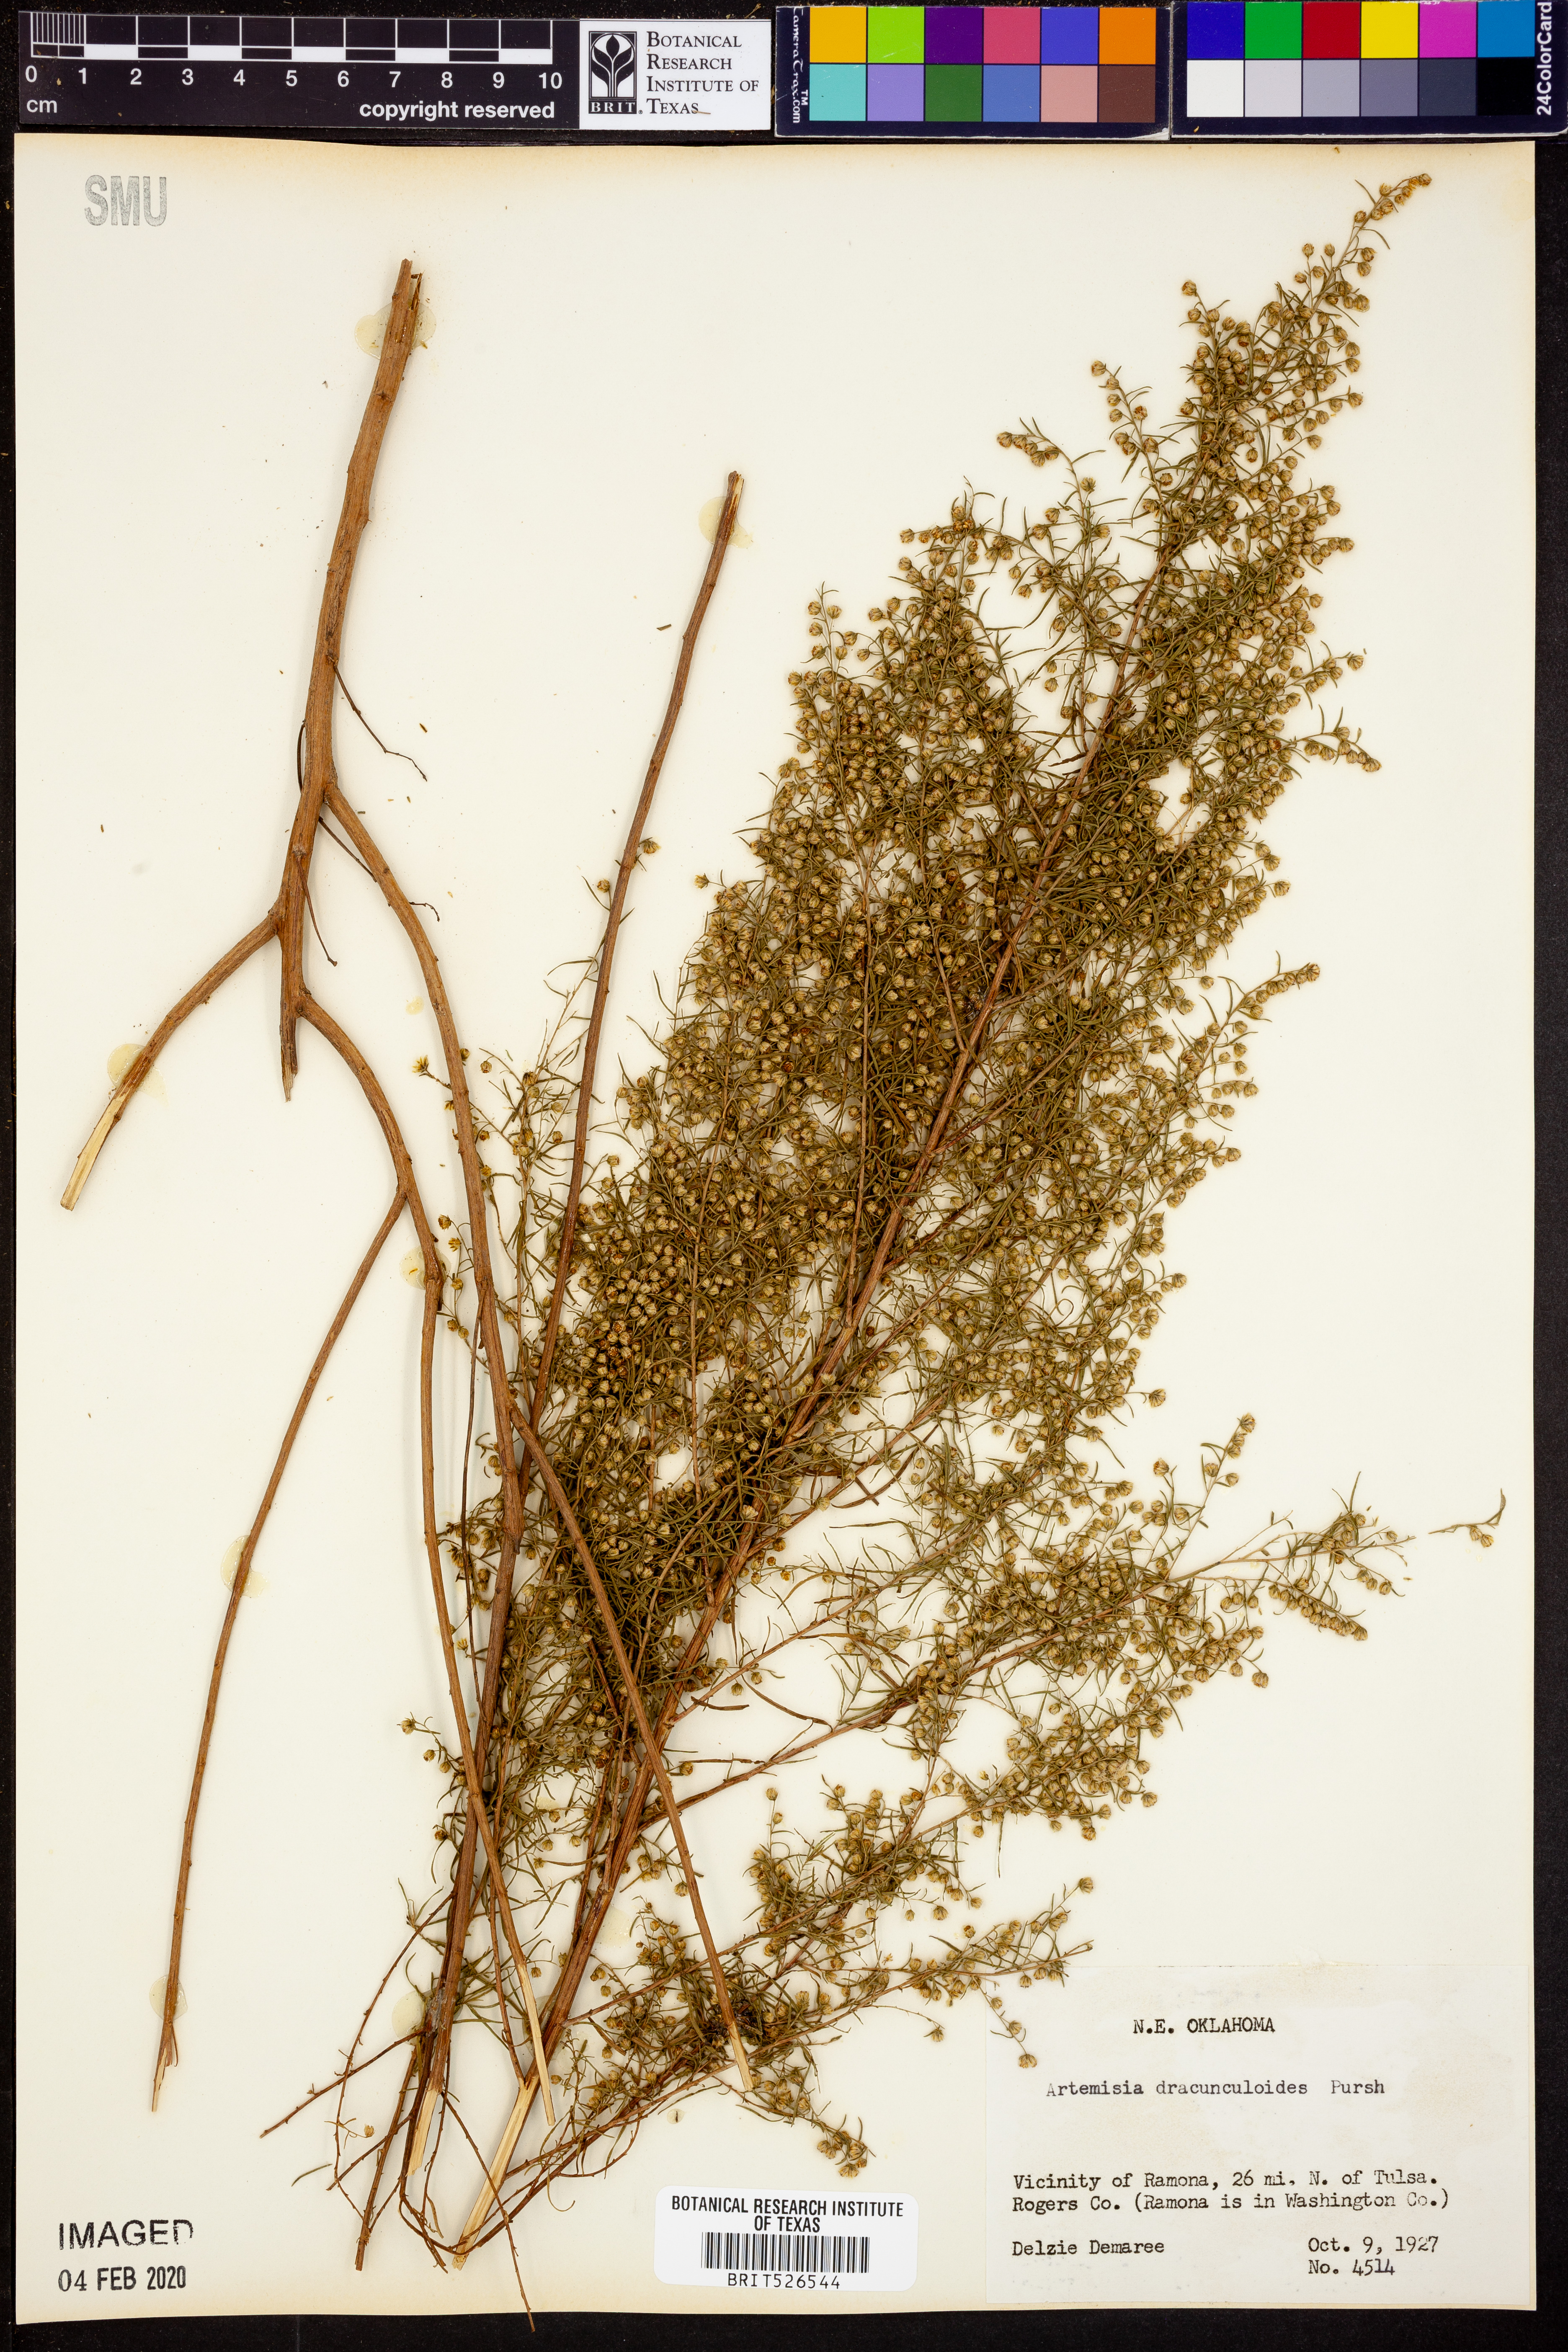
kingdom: Plantae
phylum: Tracheophyta
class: Magnoliopsida
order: Asterales
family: Asteraceae
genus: Artemisia
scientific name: Artemisia dracunculus
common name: Tarragon
